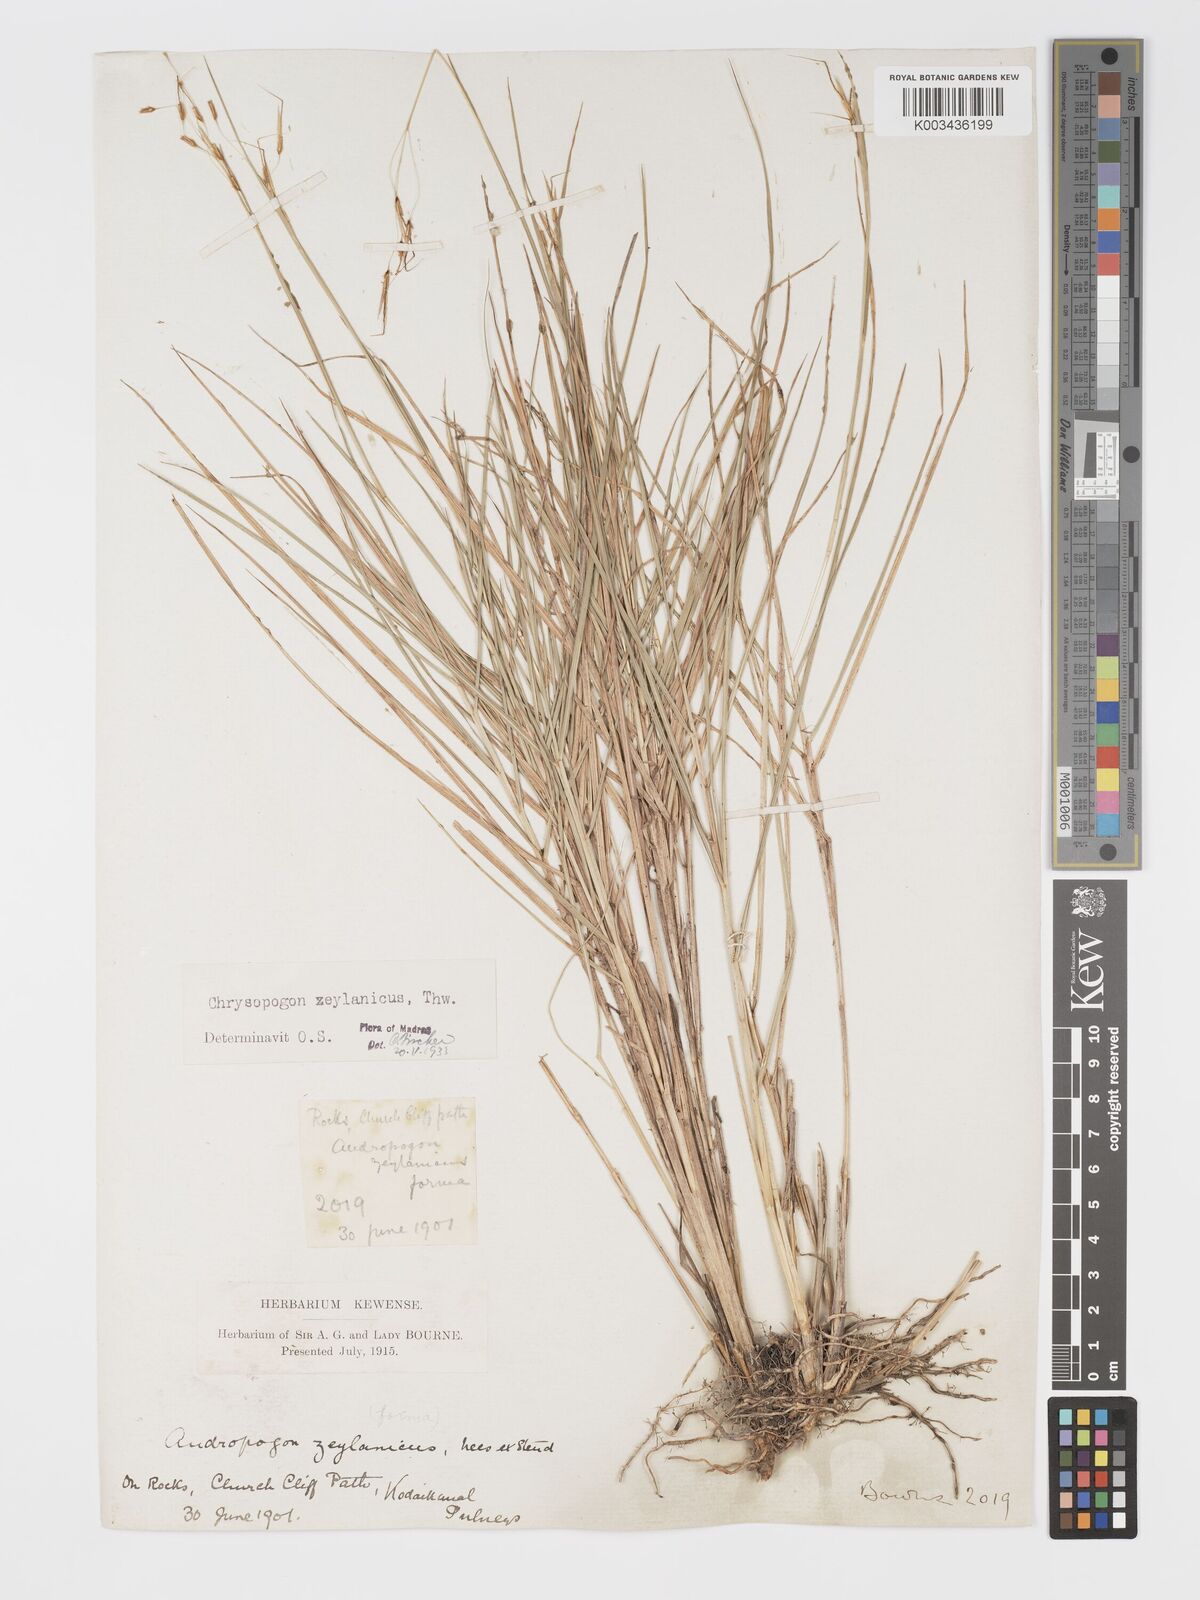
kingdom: Plantae
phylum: Tracheophyta
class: Liliopsida
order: Poales
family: Poaceae
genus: Chrysopogon
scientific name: Chrysopogon nodulibarbis
